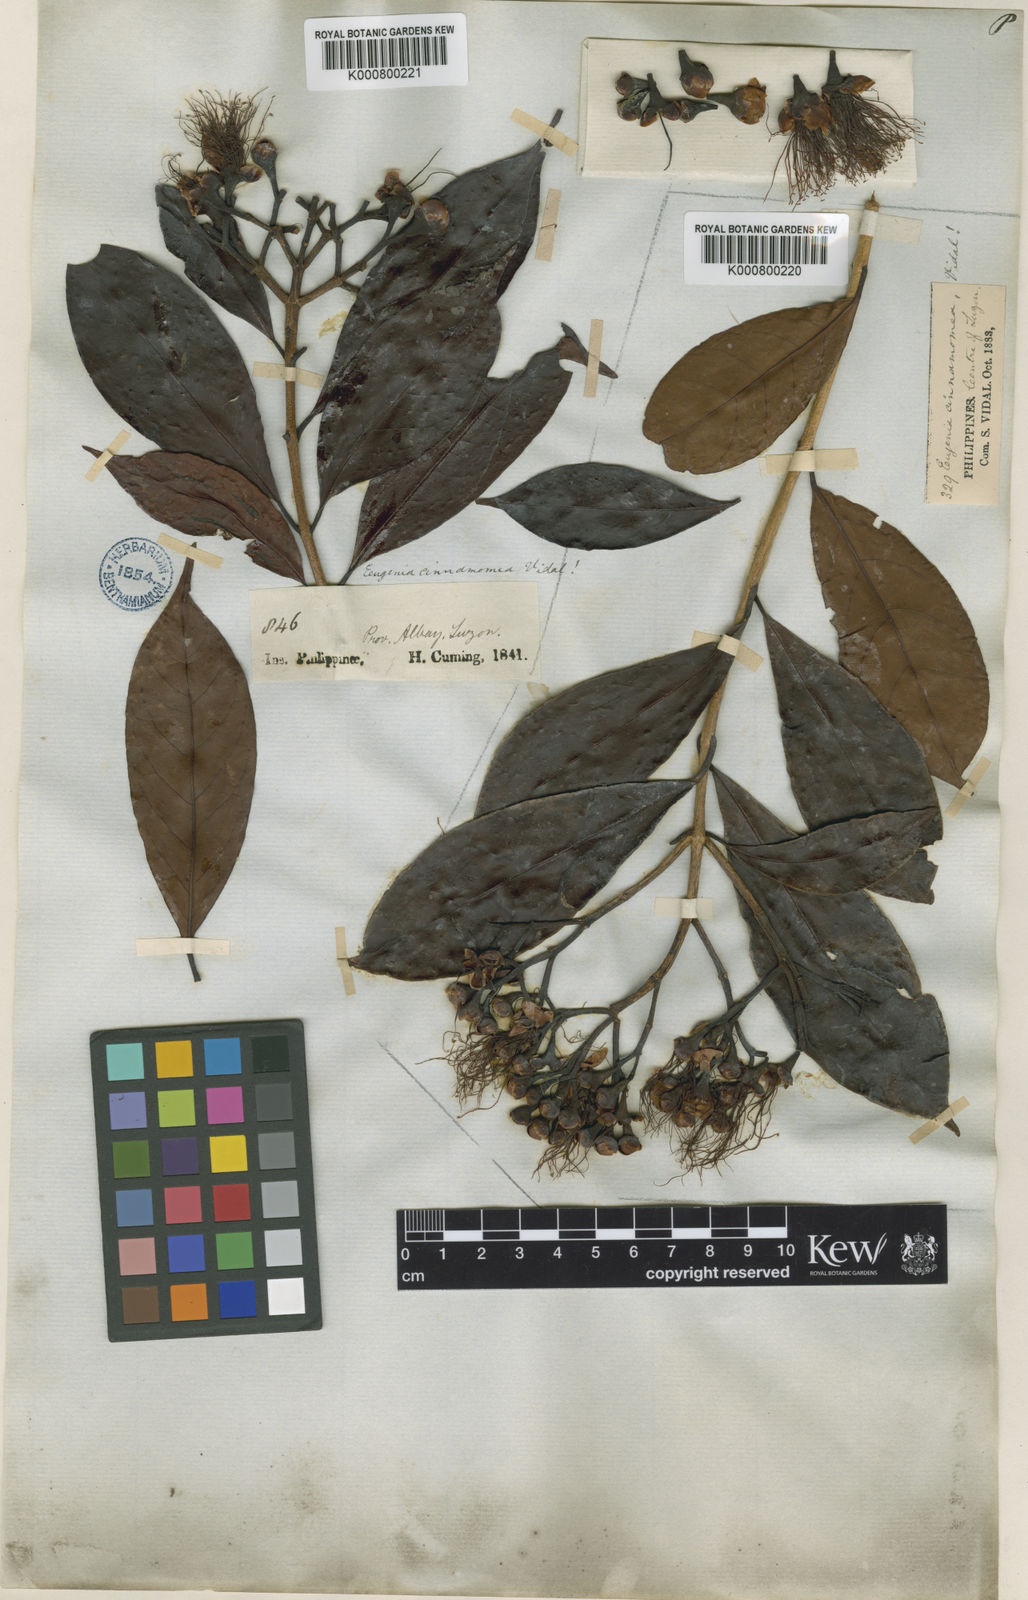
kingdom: Plantae
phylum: Tracheophyta
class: Magnoliopsida
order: Myrtales
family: Myrtaceae
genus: Syzygium
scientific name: Syzygium cinnamomeum
